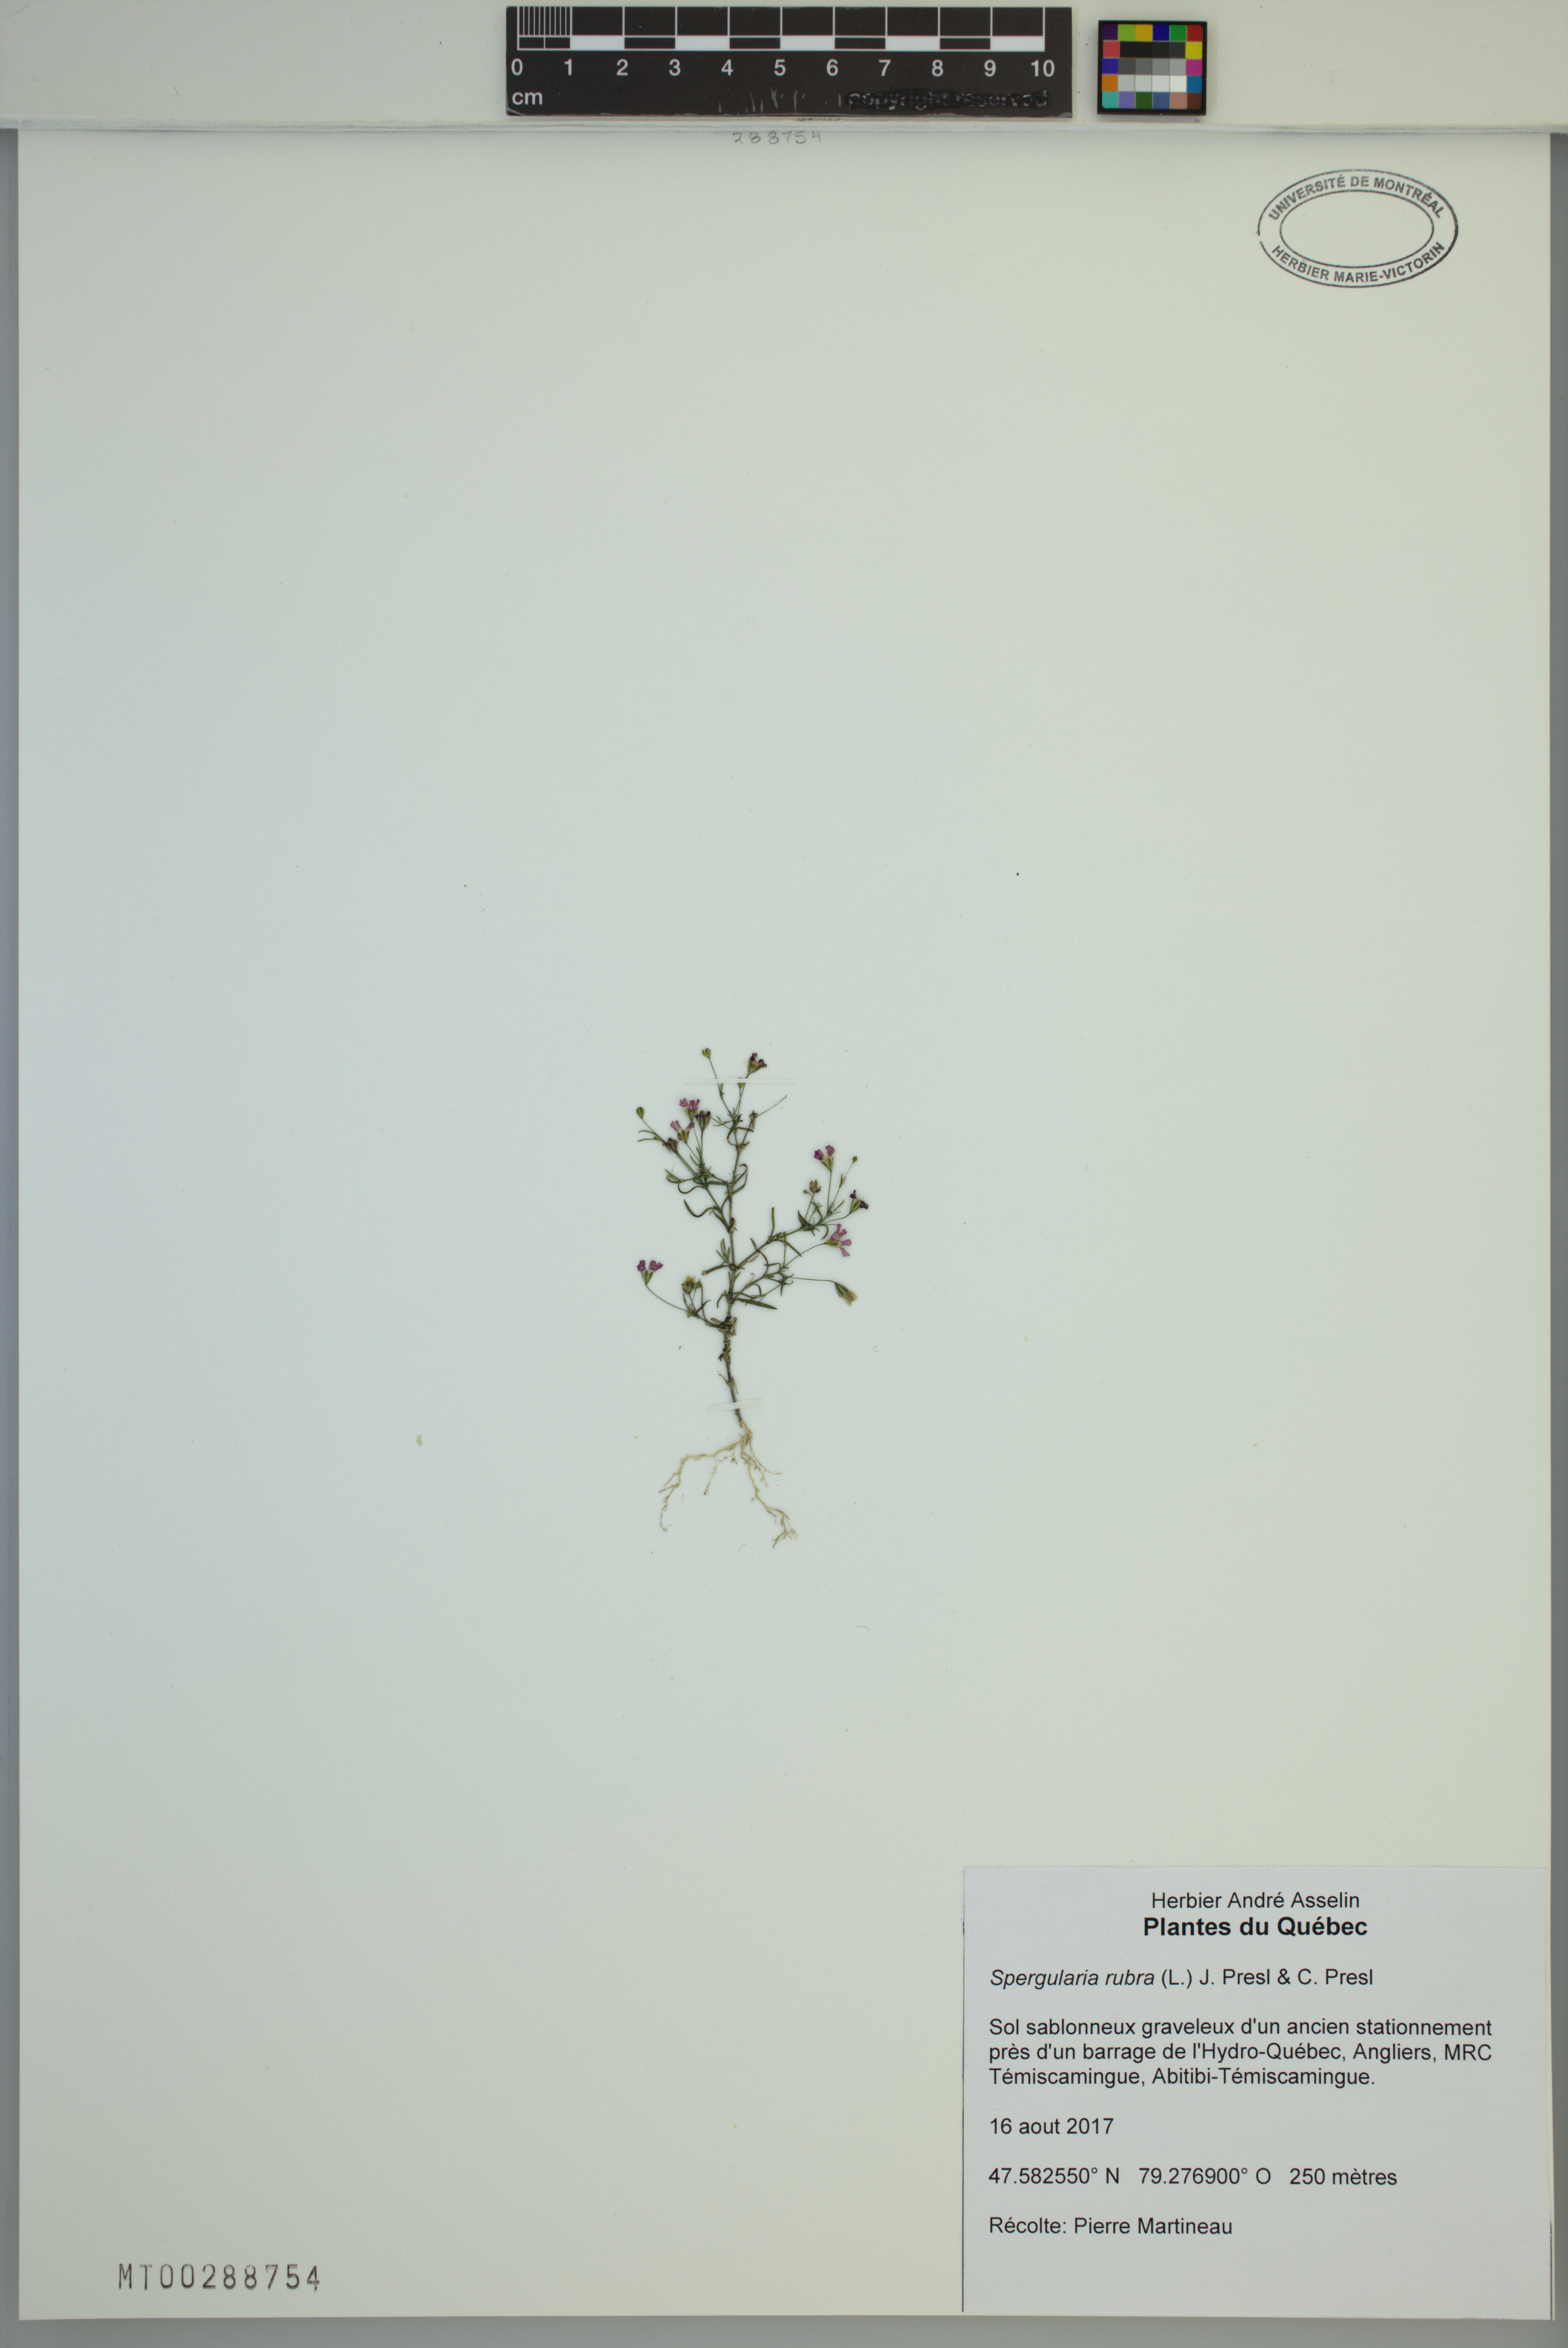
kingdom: Plantae
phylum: Tracheophyta
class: Magnoliopsida
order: Caryophyllales
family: Caryophyllaceae
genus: Spergularia
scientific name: Spergularia rubra
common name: Red sand-spurrey
